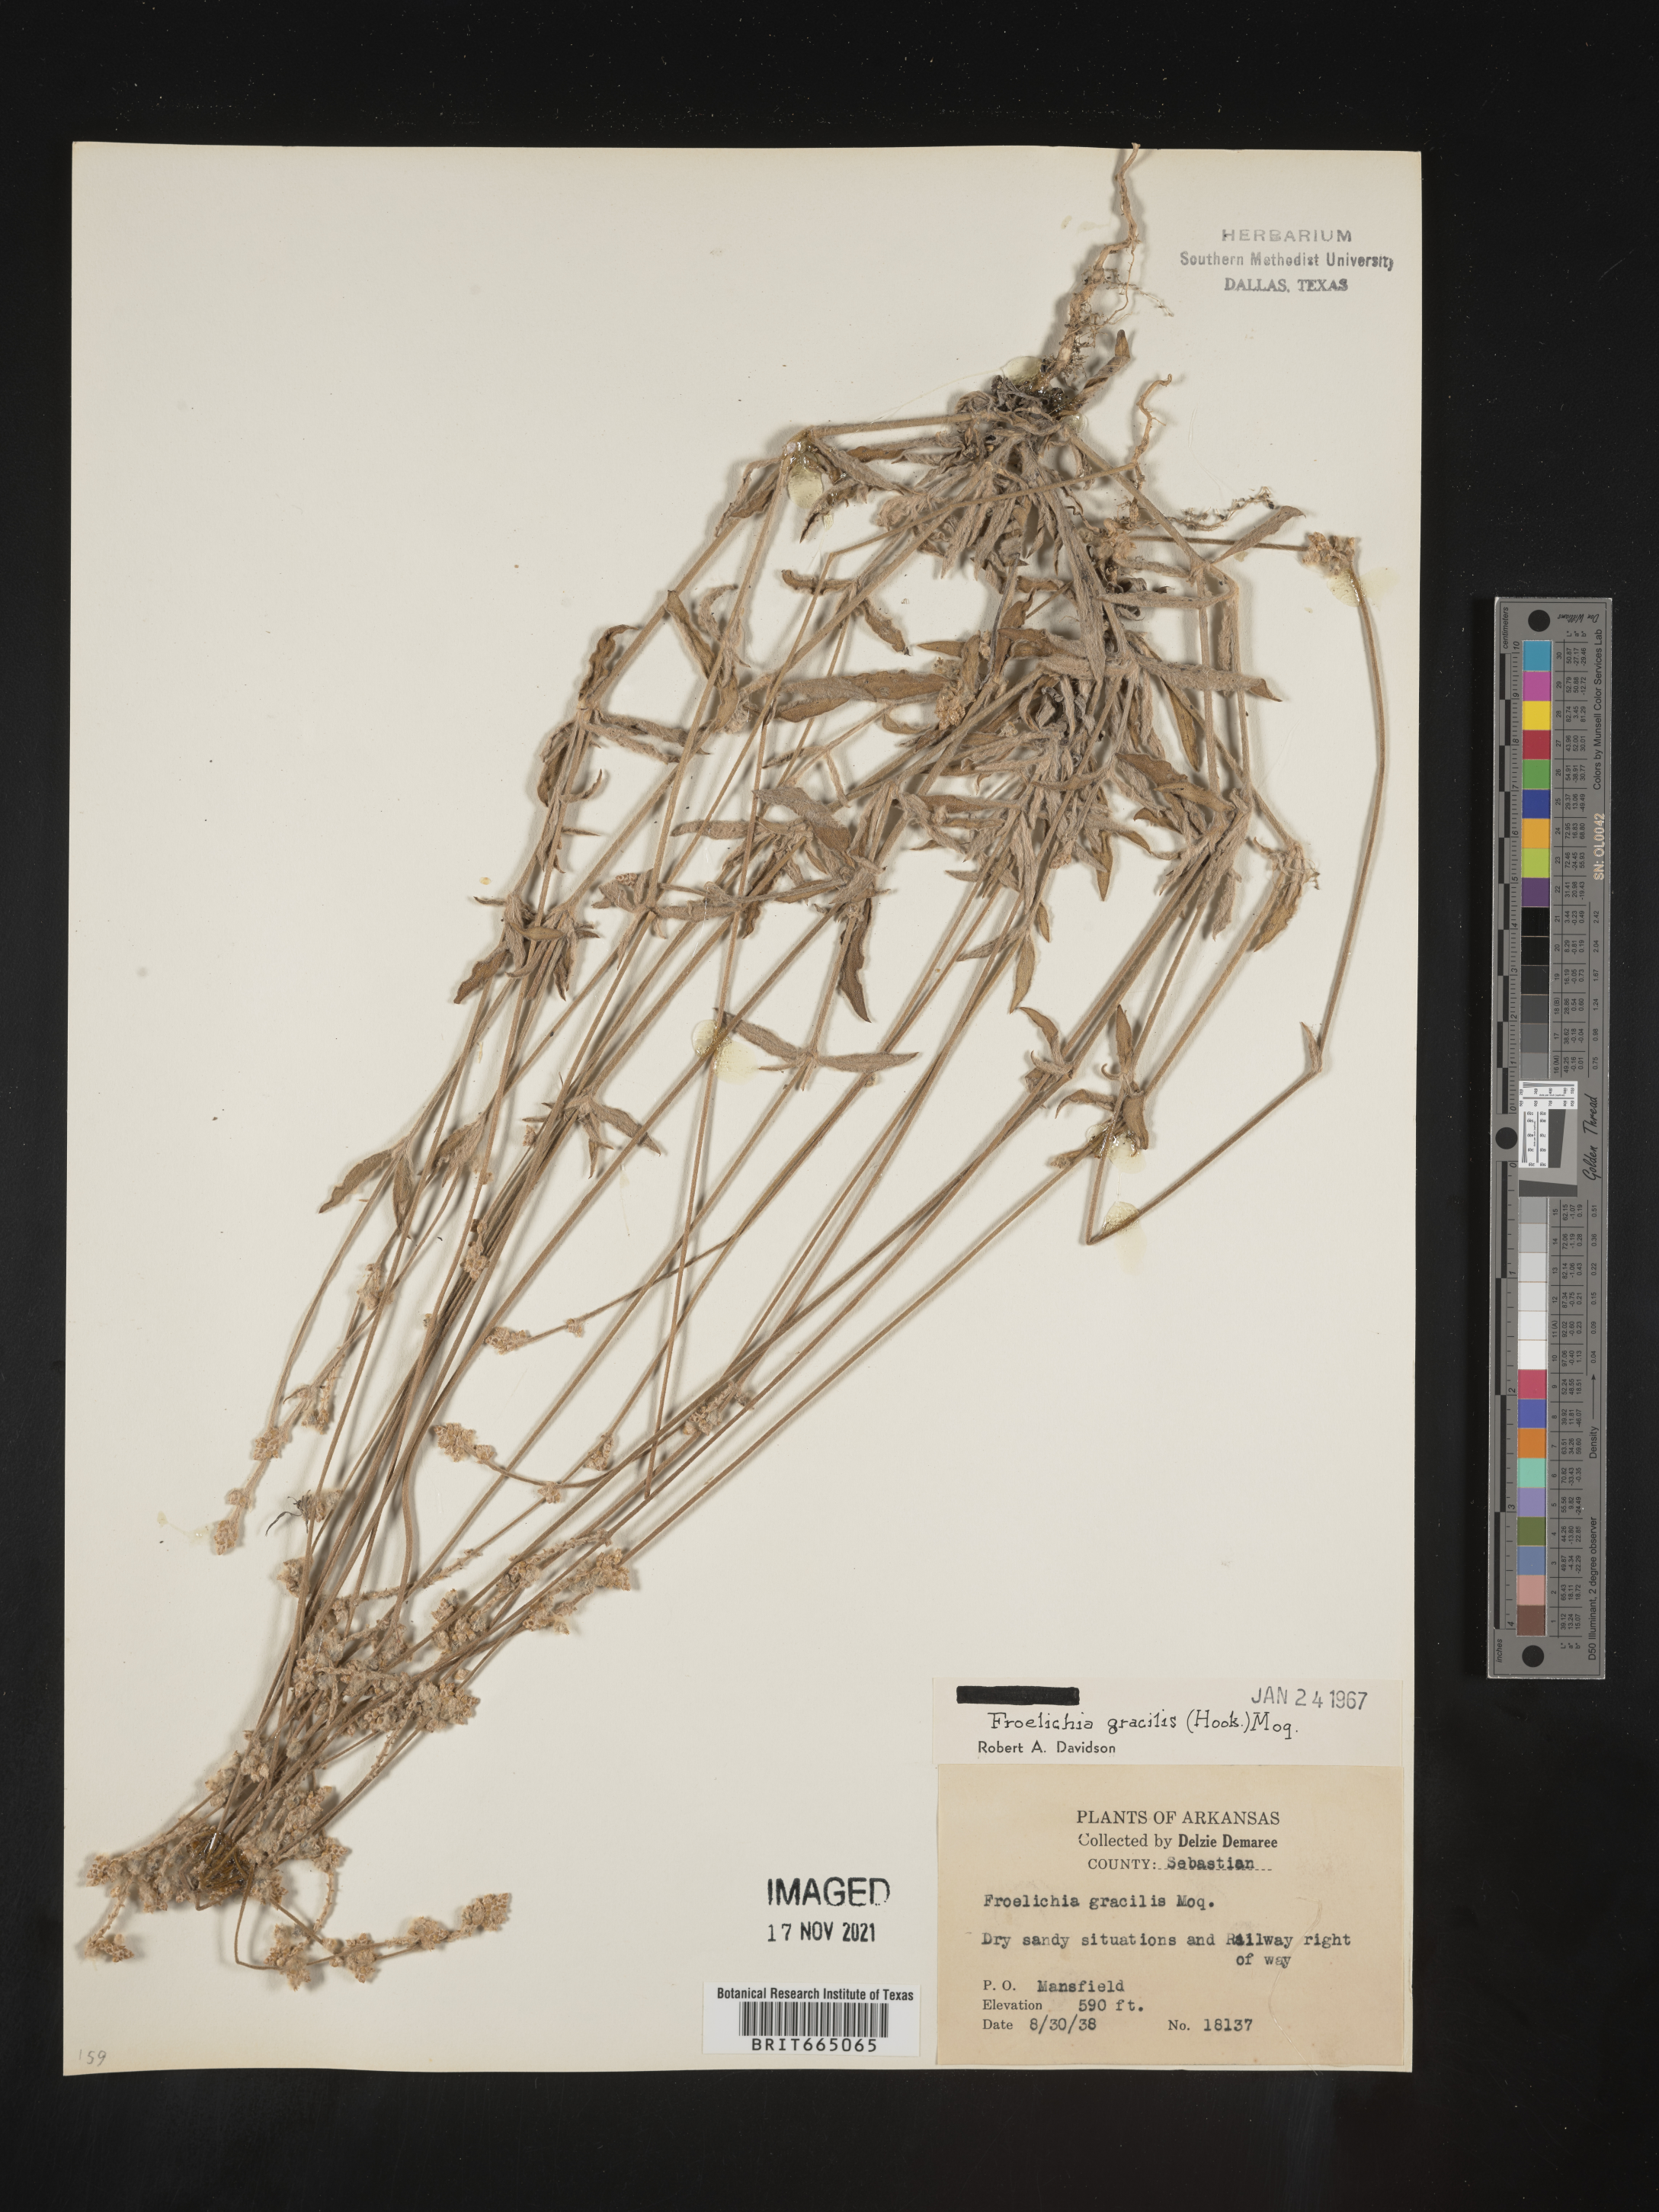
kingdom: Plantae
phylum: Tracheophyta
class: Magnoliopsida
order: Caryophyllales
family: Amaranthaceae
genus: Froelichia
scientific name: Froelichia gracilis
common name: Slender cottonweed
